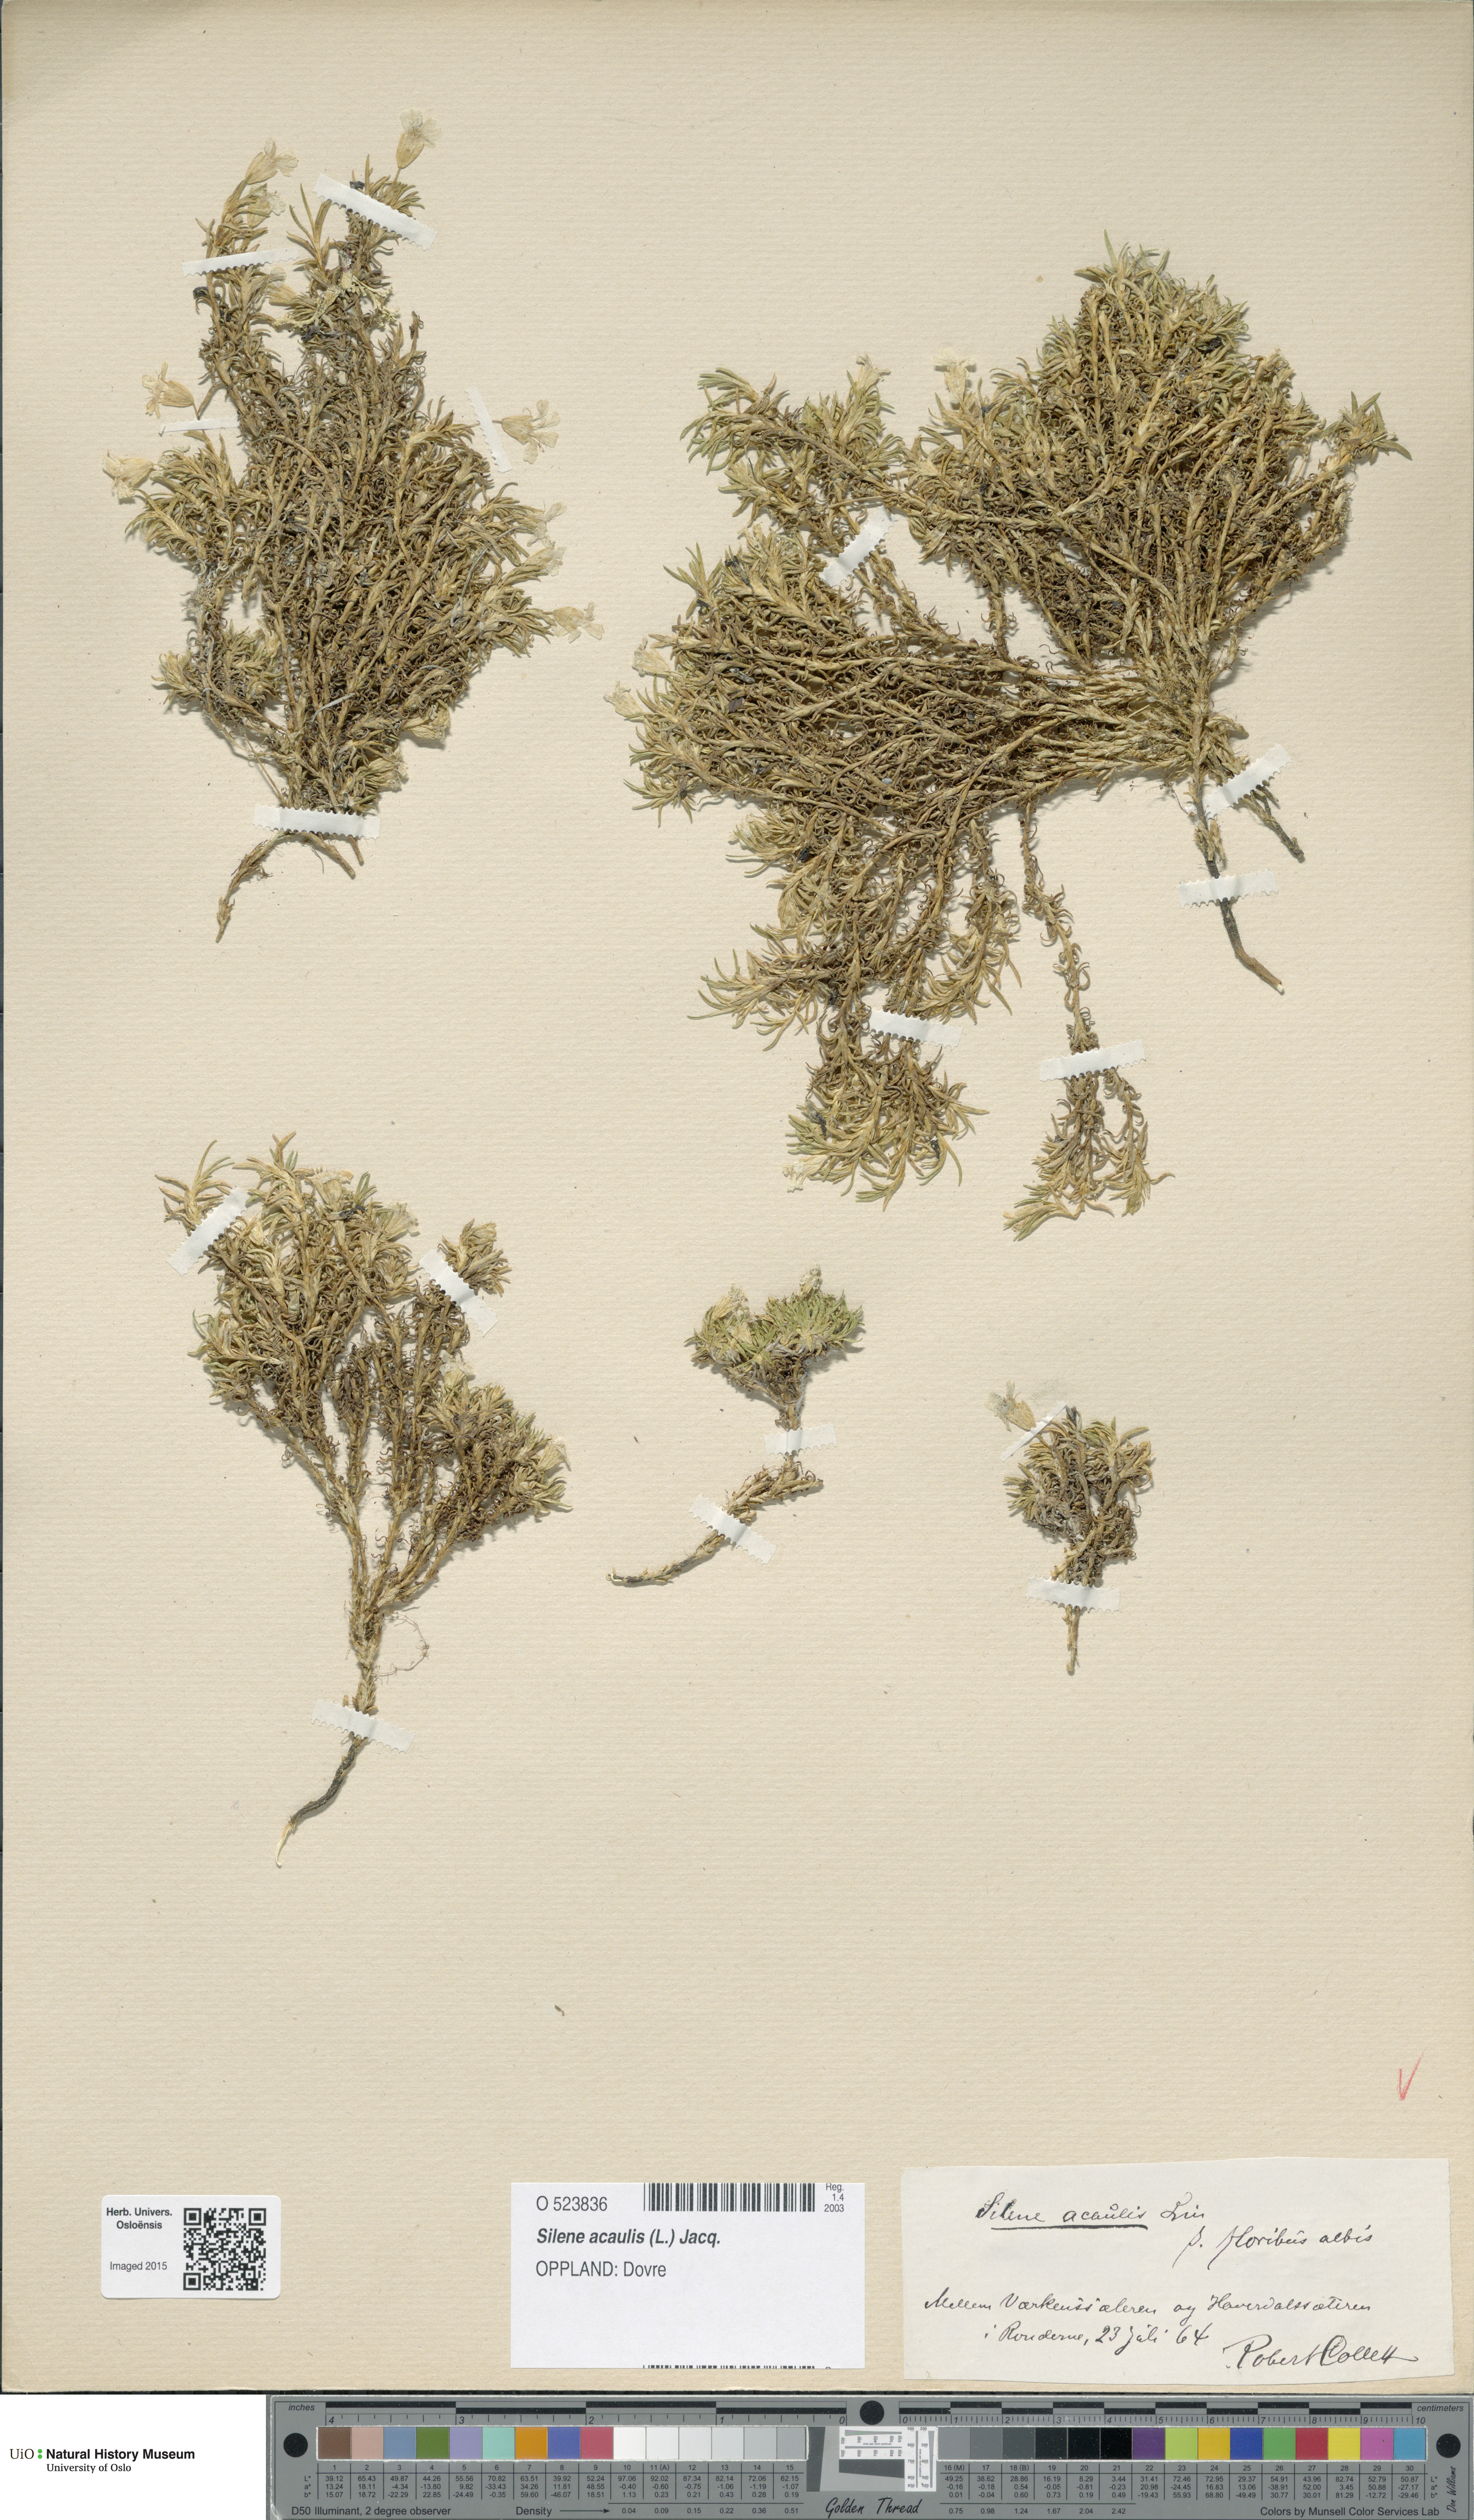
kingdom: Plantae
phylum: Tracheophyta
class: Magnoliopsida
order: Caryophyllales
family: Caryophyllaceae
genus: Silene
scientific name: Silene acaulis
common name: Moss campion
